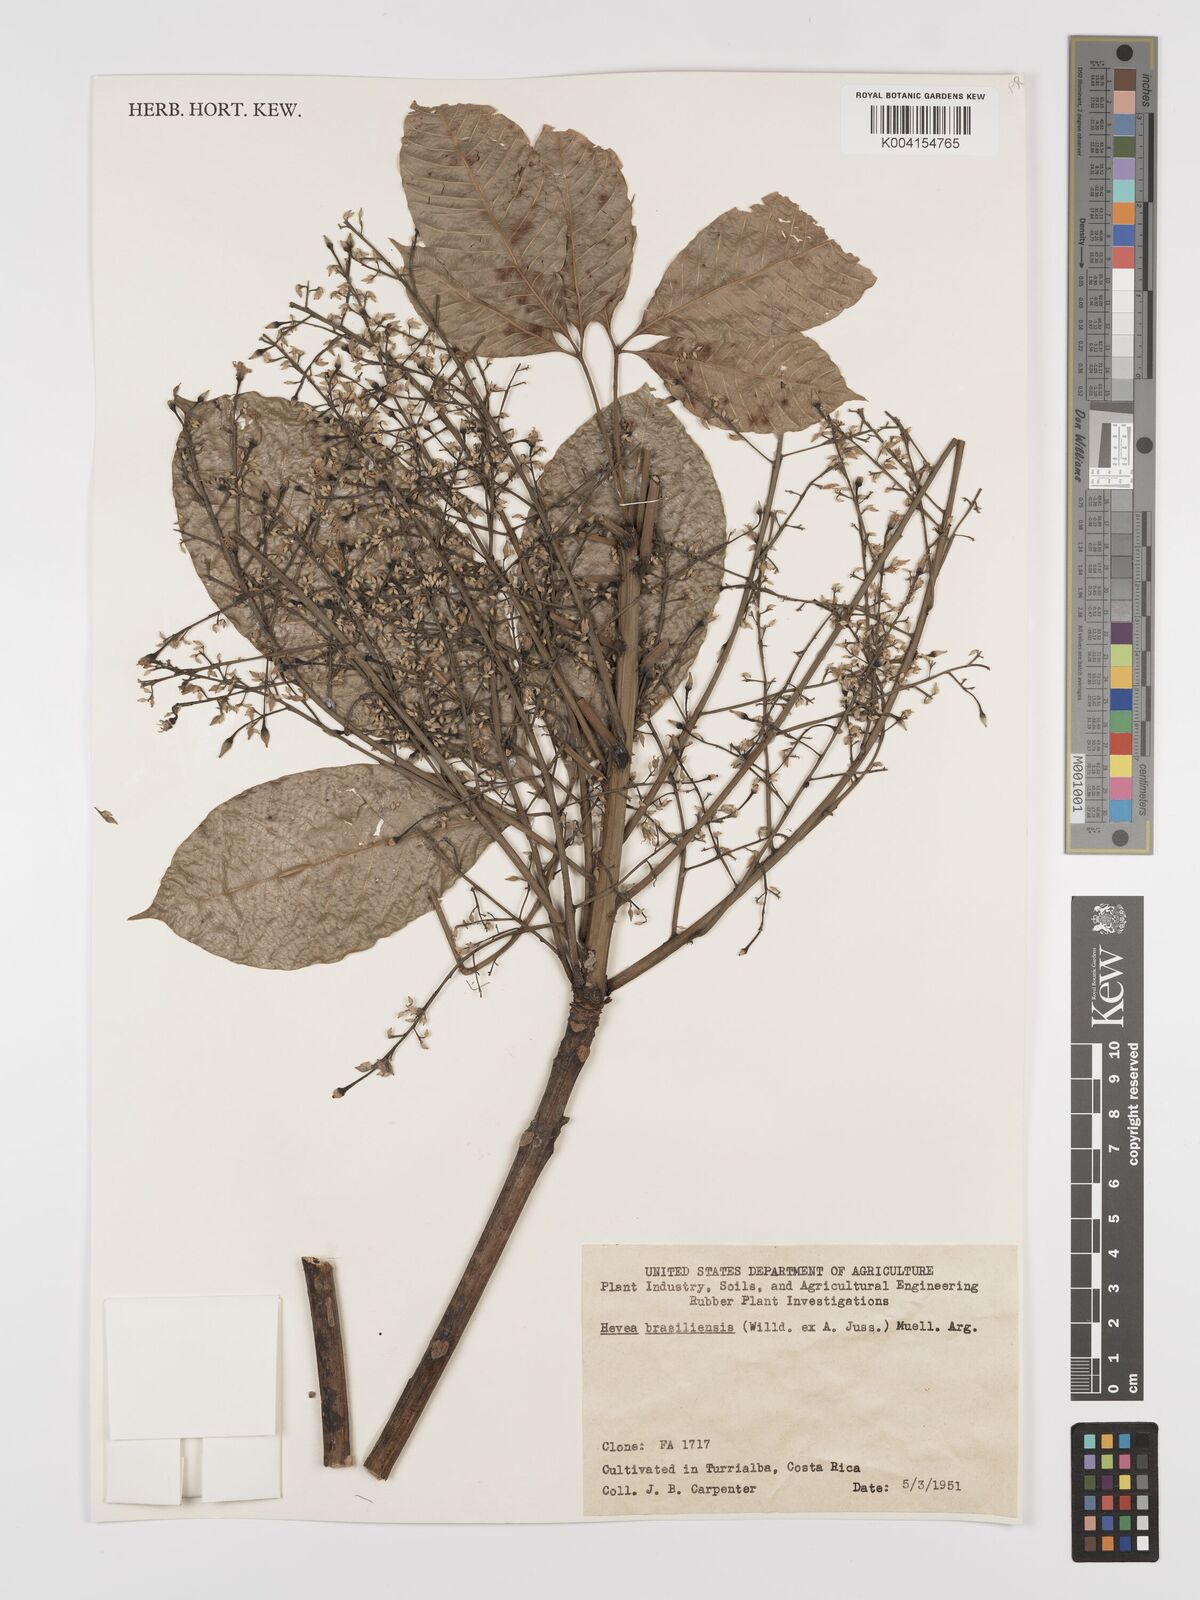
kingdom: Plantae
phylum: Tracheophyta
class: Magnoliopsida
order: Malpighiales
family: Euphorbiaceae
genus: Hevea
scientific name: Hevea brasiliensis
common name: Natural rubber
